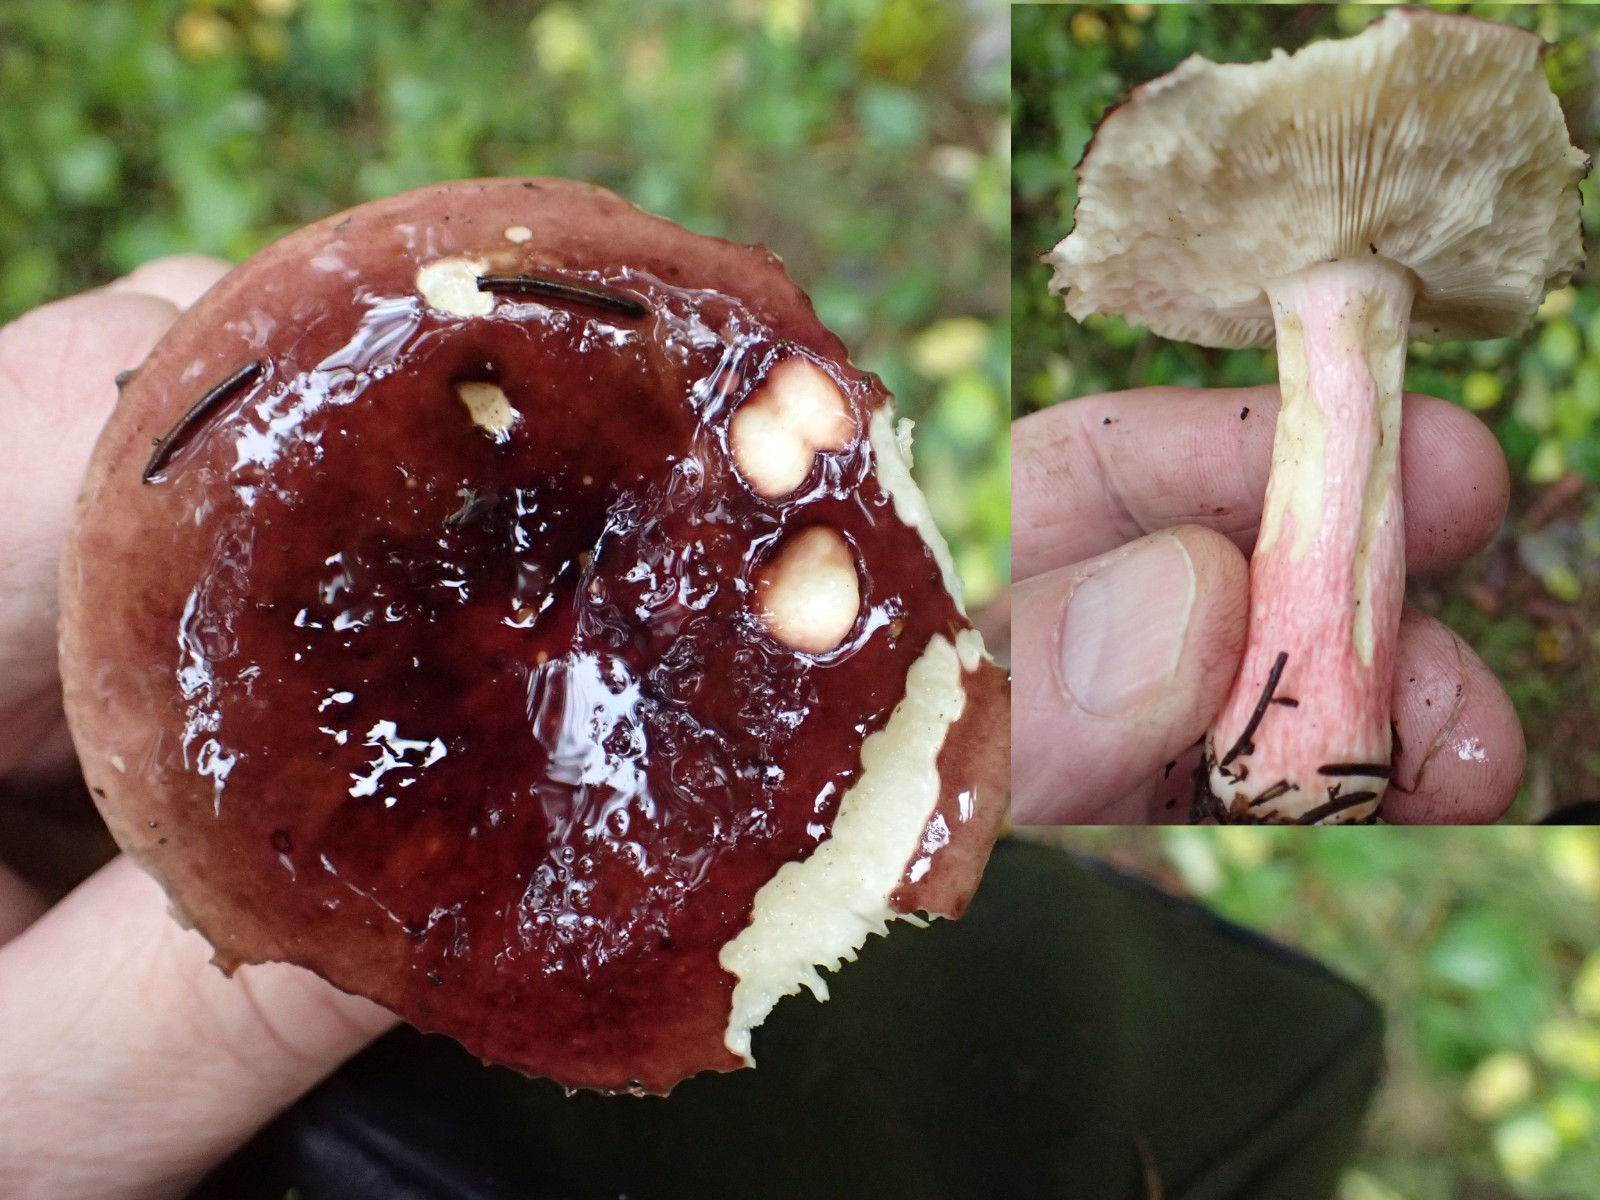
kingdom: Fungi
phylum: Basidiomycota
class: Agaricomycetes
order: Russulales
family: Russulaceae
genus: Russula
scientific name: Russula xerampelina
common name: hummer-skørhat
